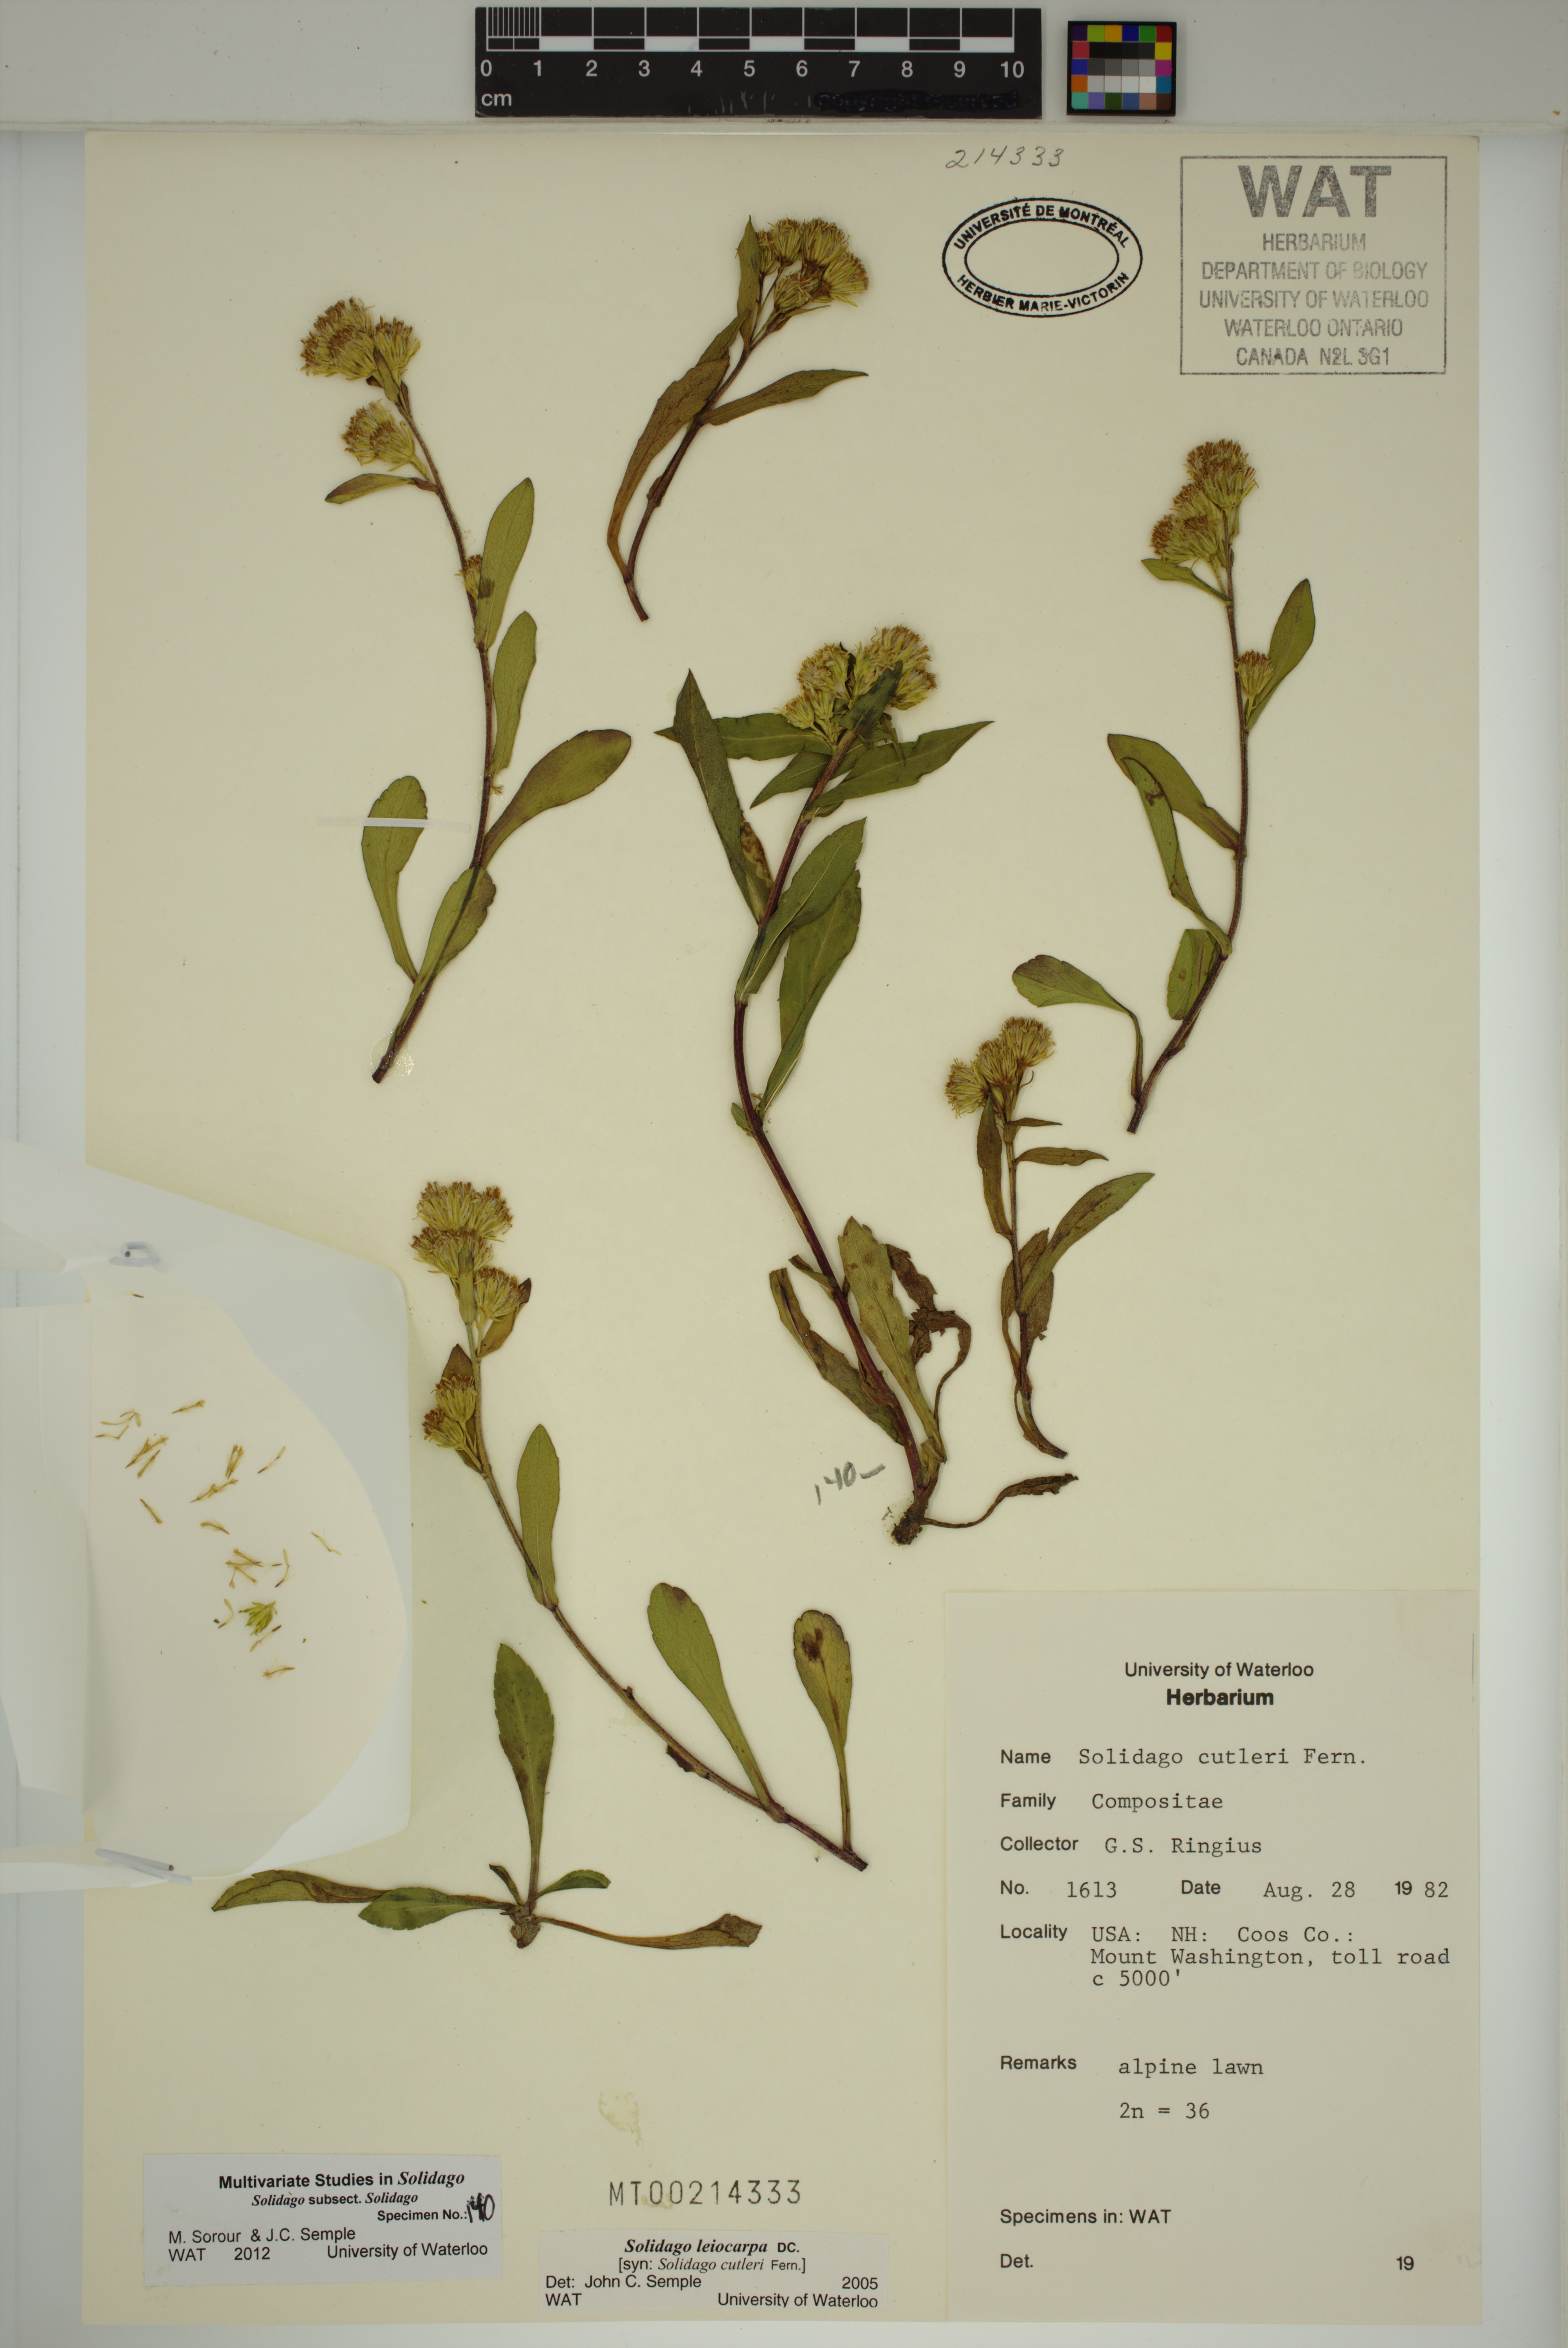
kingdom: Plantae
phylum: Tracheophyta
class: Magnoliopsida
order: Asterales
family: Asteraceae
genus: Solidago
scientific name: Solidago leiocarpa
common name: Cutler's alpine goldenrod
